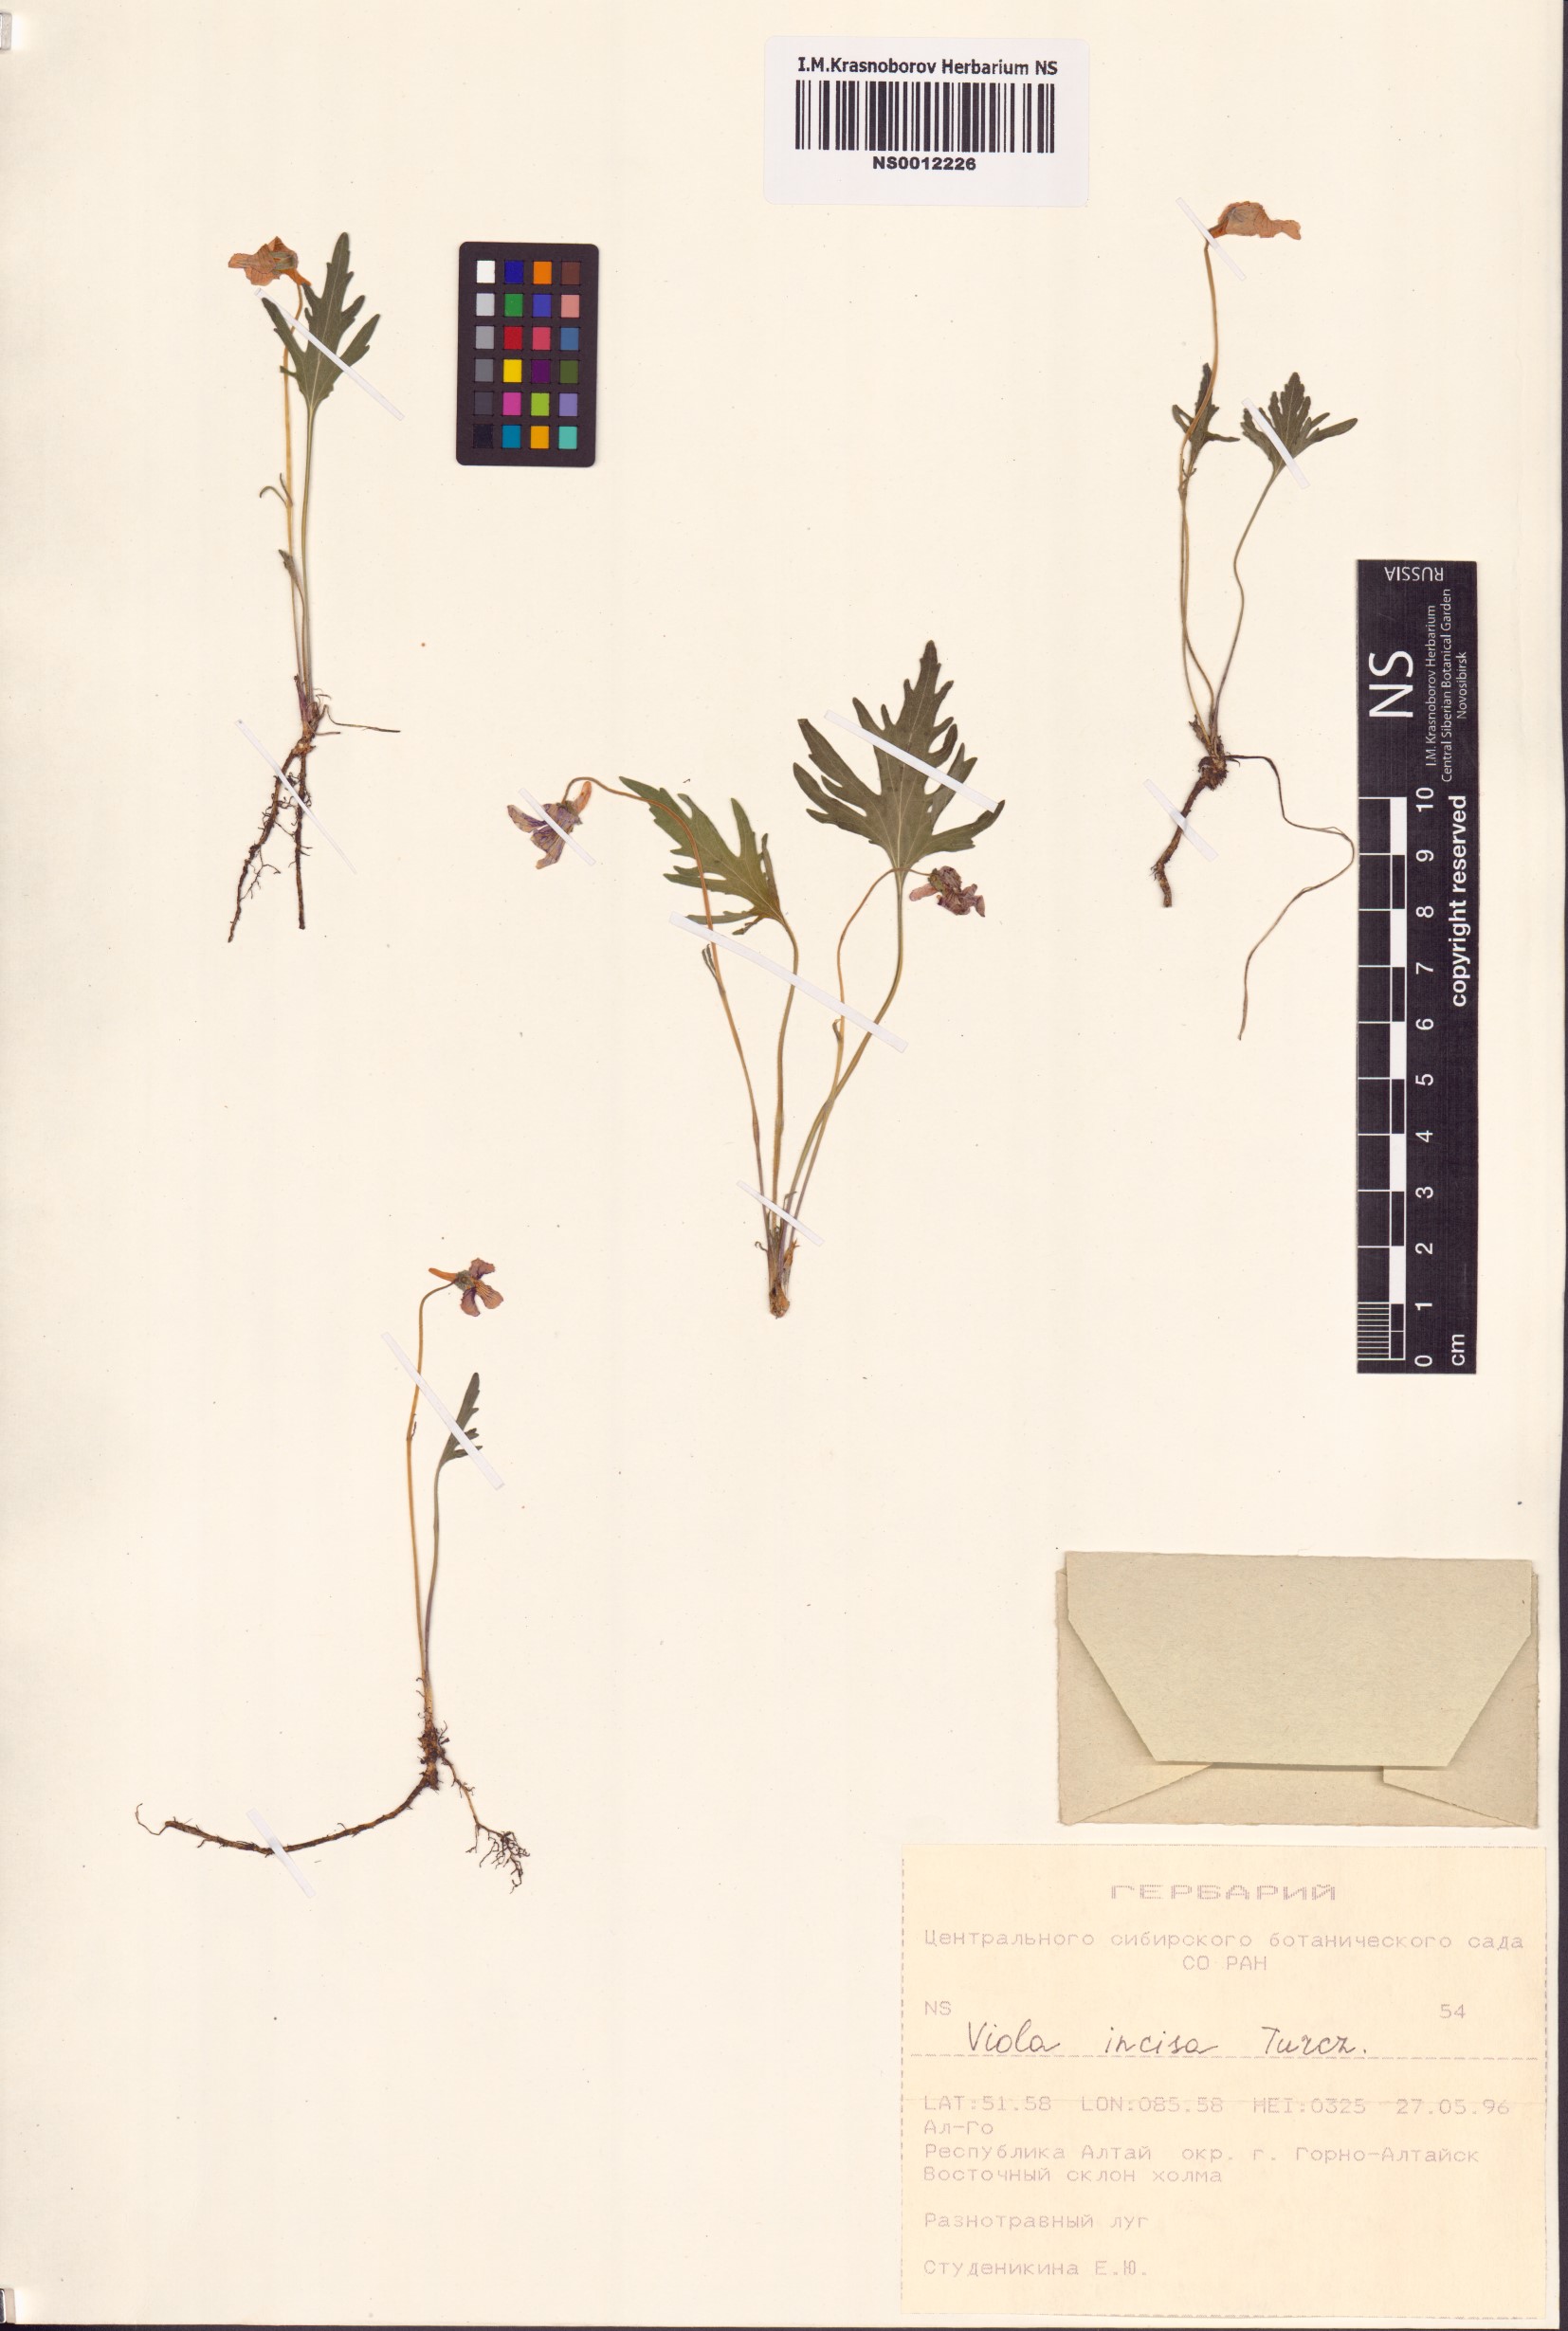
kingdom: Plantae
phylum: Tracheophyta
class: Magnoliopsida
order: Malpighiales
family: Violaceae
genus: Viola
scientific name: Viola incisa
